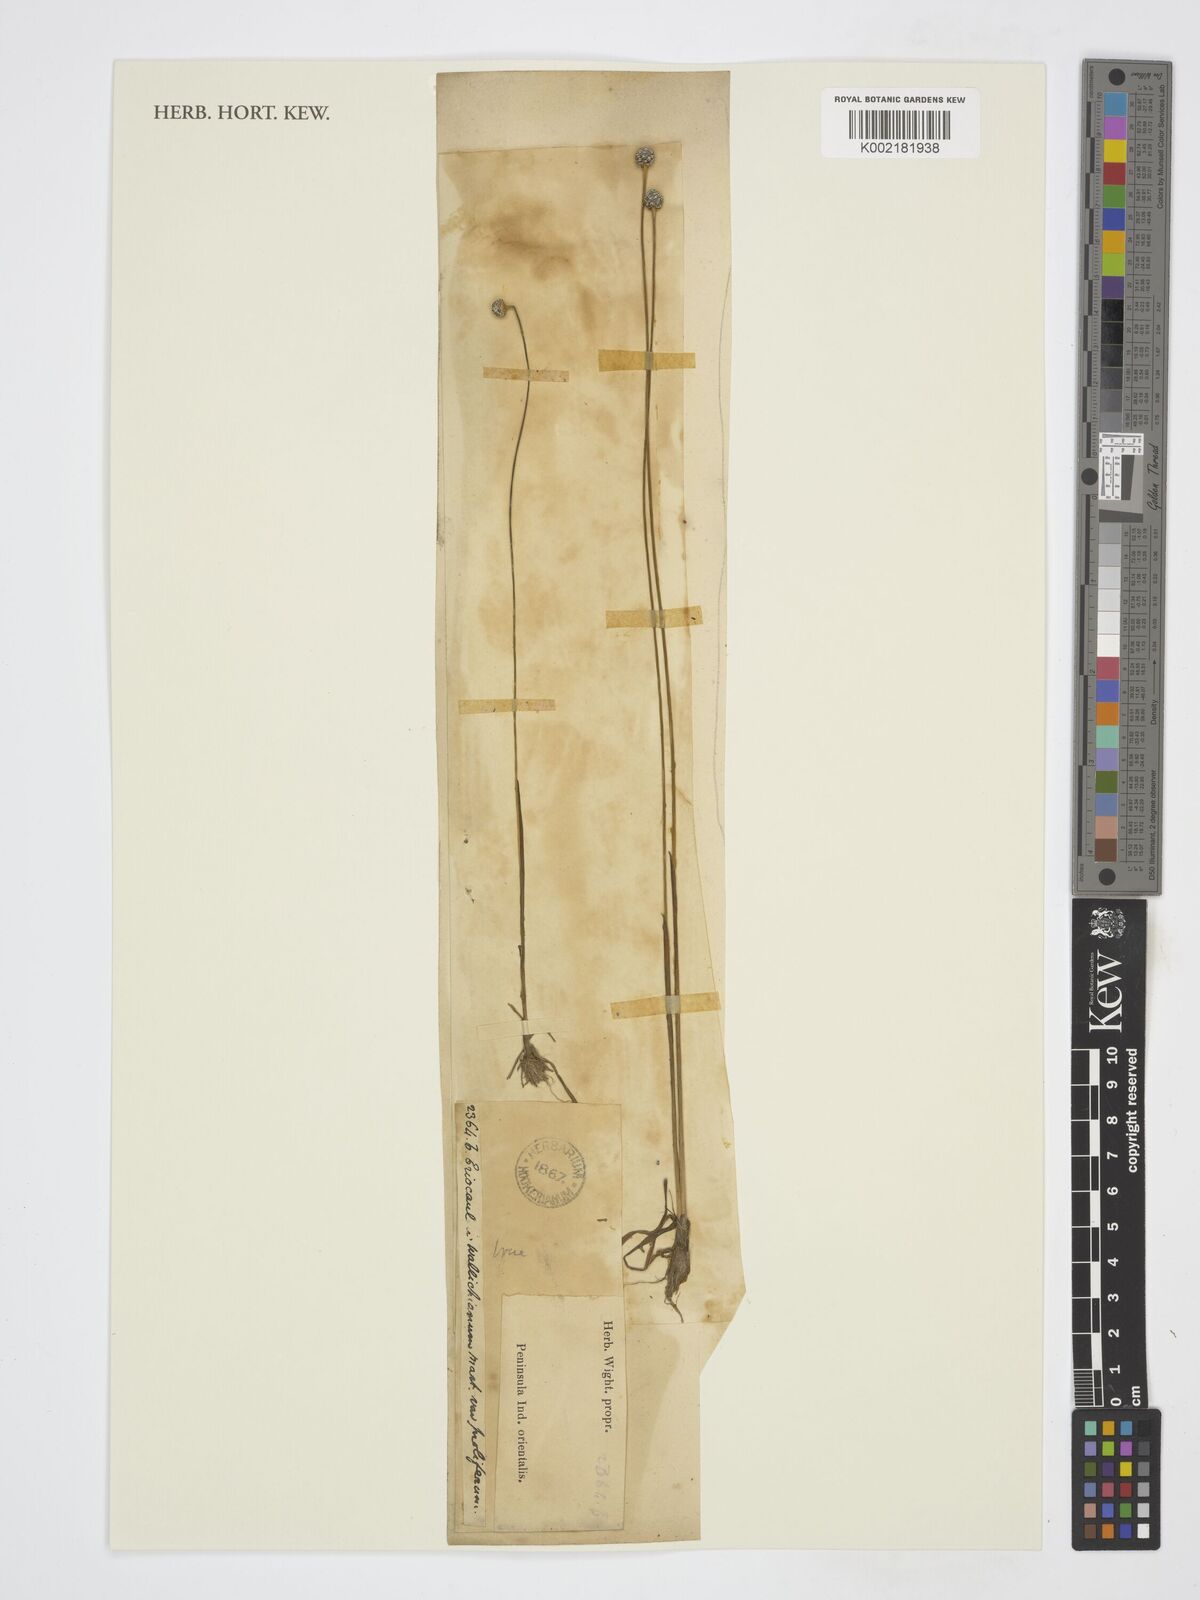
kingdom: Plantae
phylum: Tracheophyta
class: Liliopsida
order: Poales
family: Eriocaulaceae
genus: Eriocaulon
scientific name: Eriocaulon sexangulare
